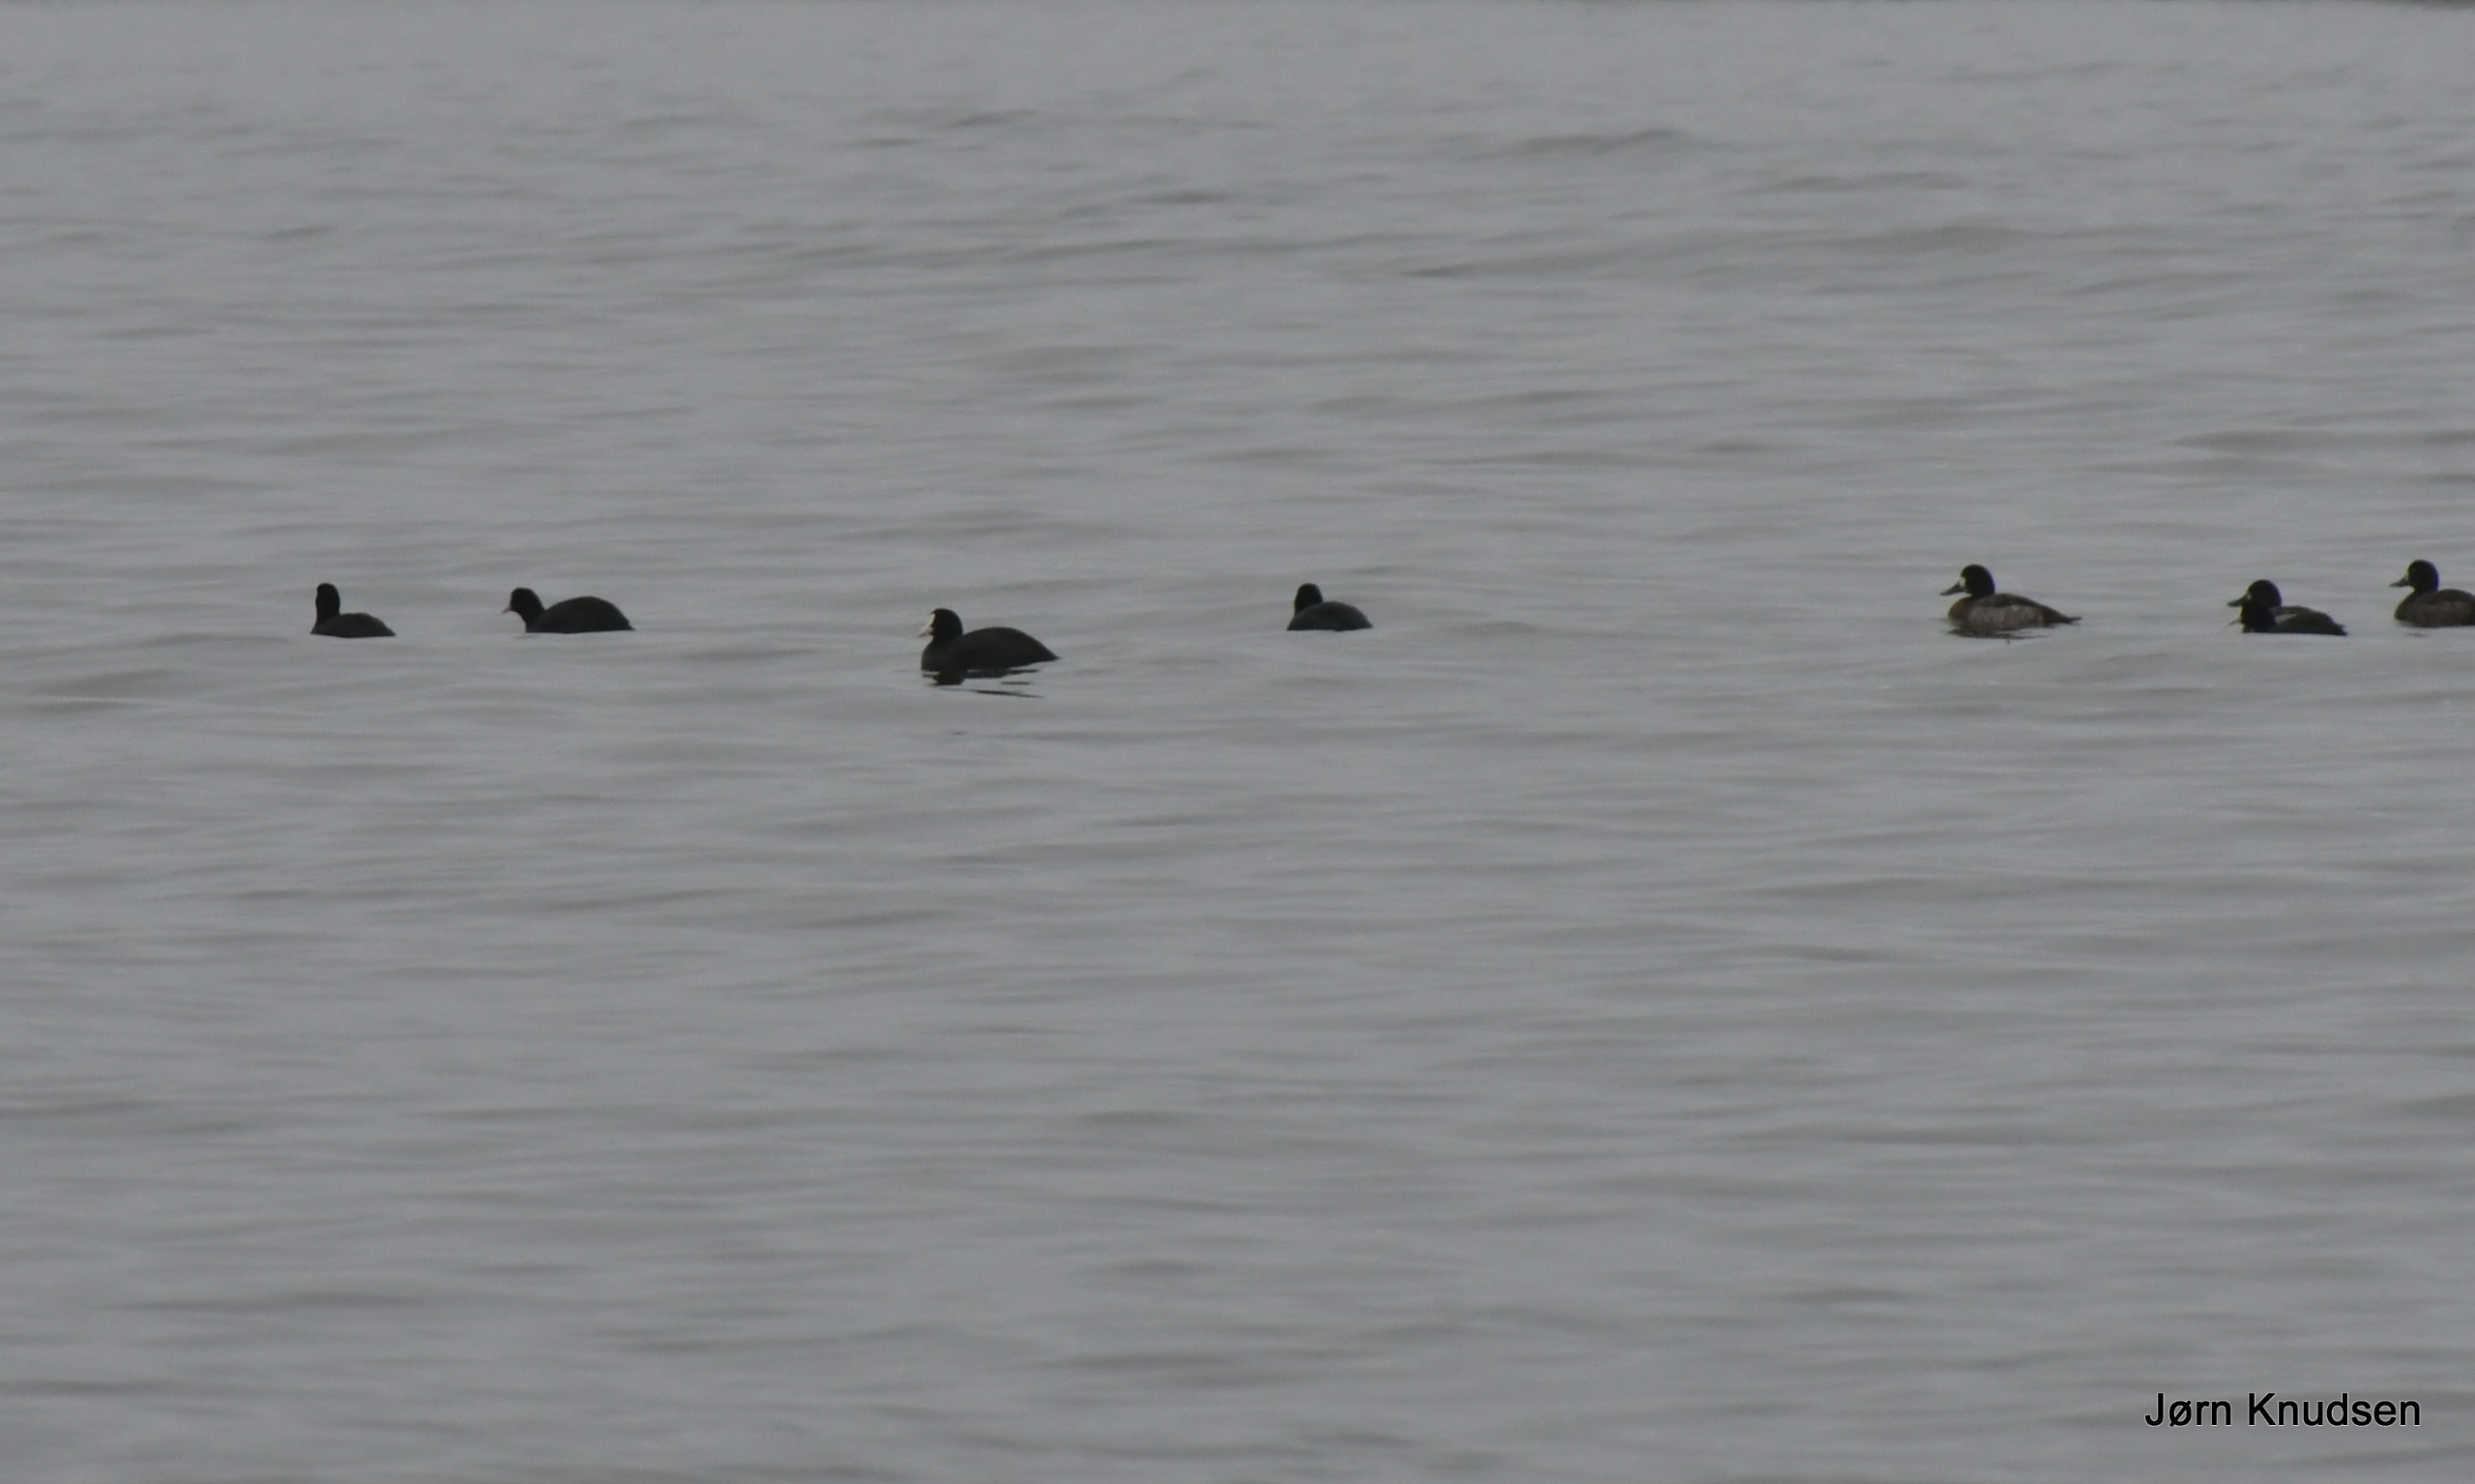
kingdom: Animalia
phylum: Chordata
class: Aves
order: Gruiformes
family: Rallidae
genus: Fulica
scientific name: Fulica atra
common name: Blishøne
